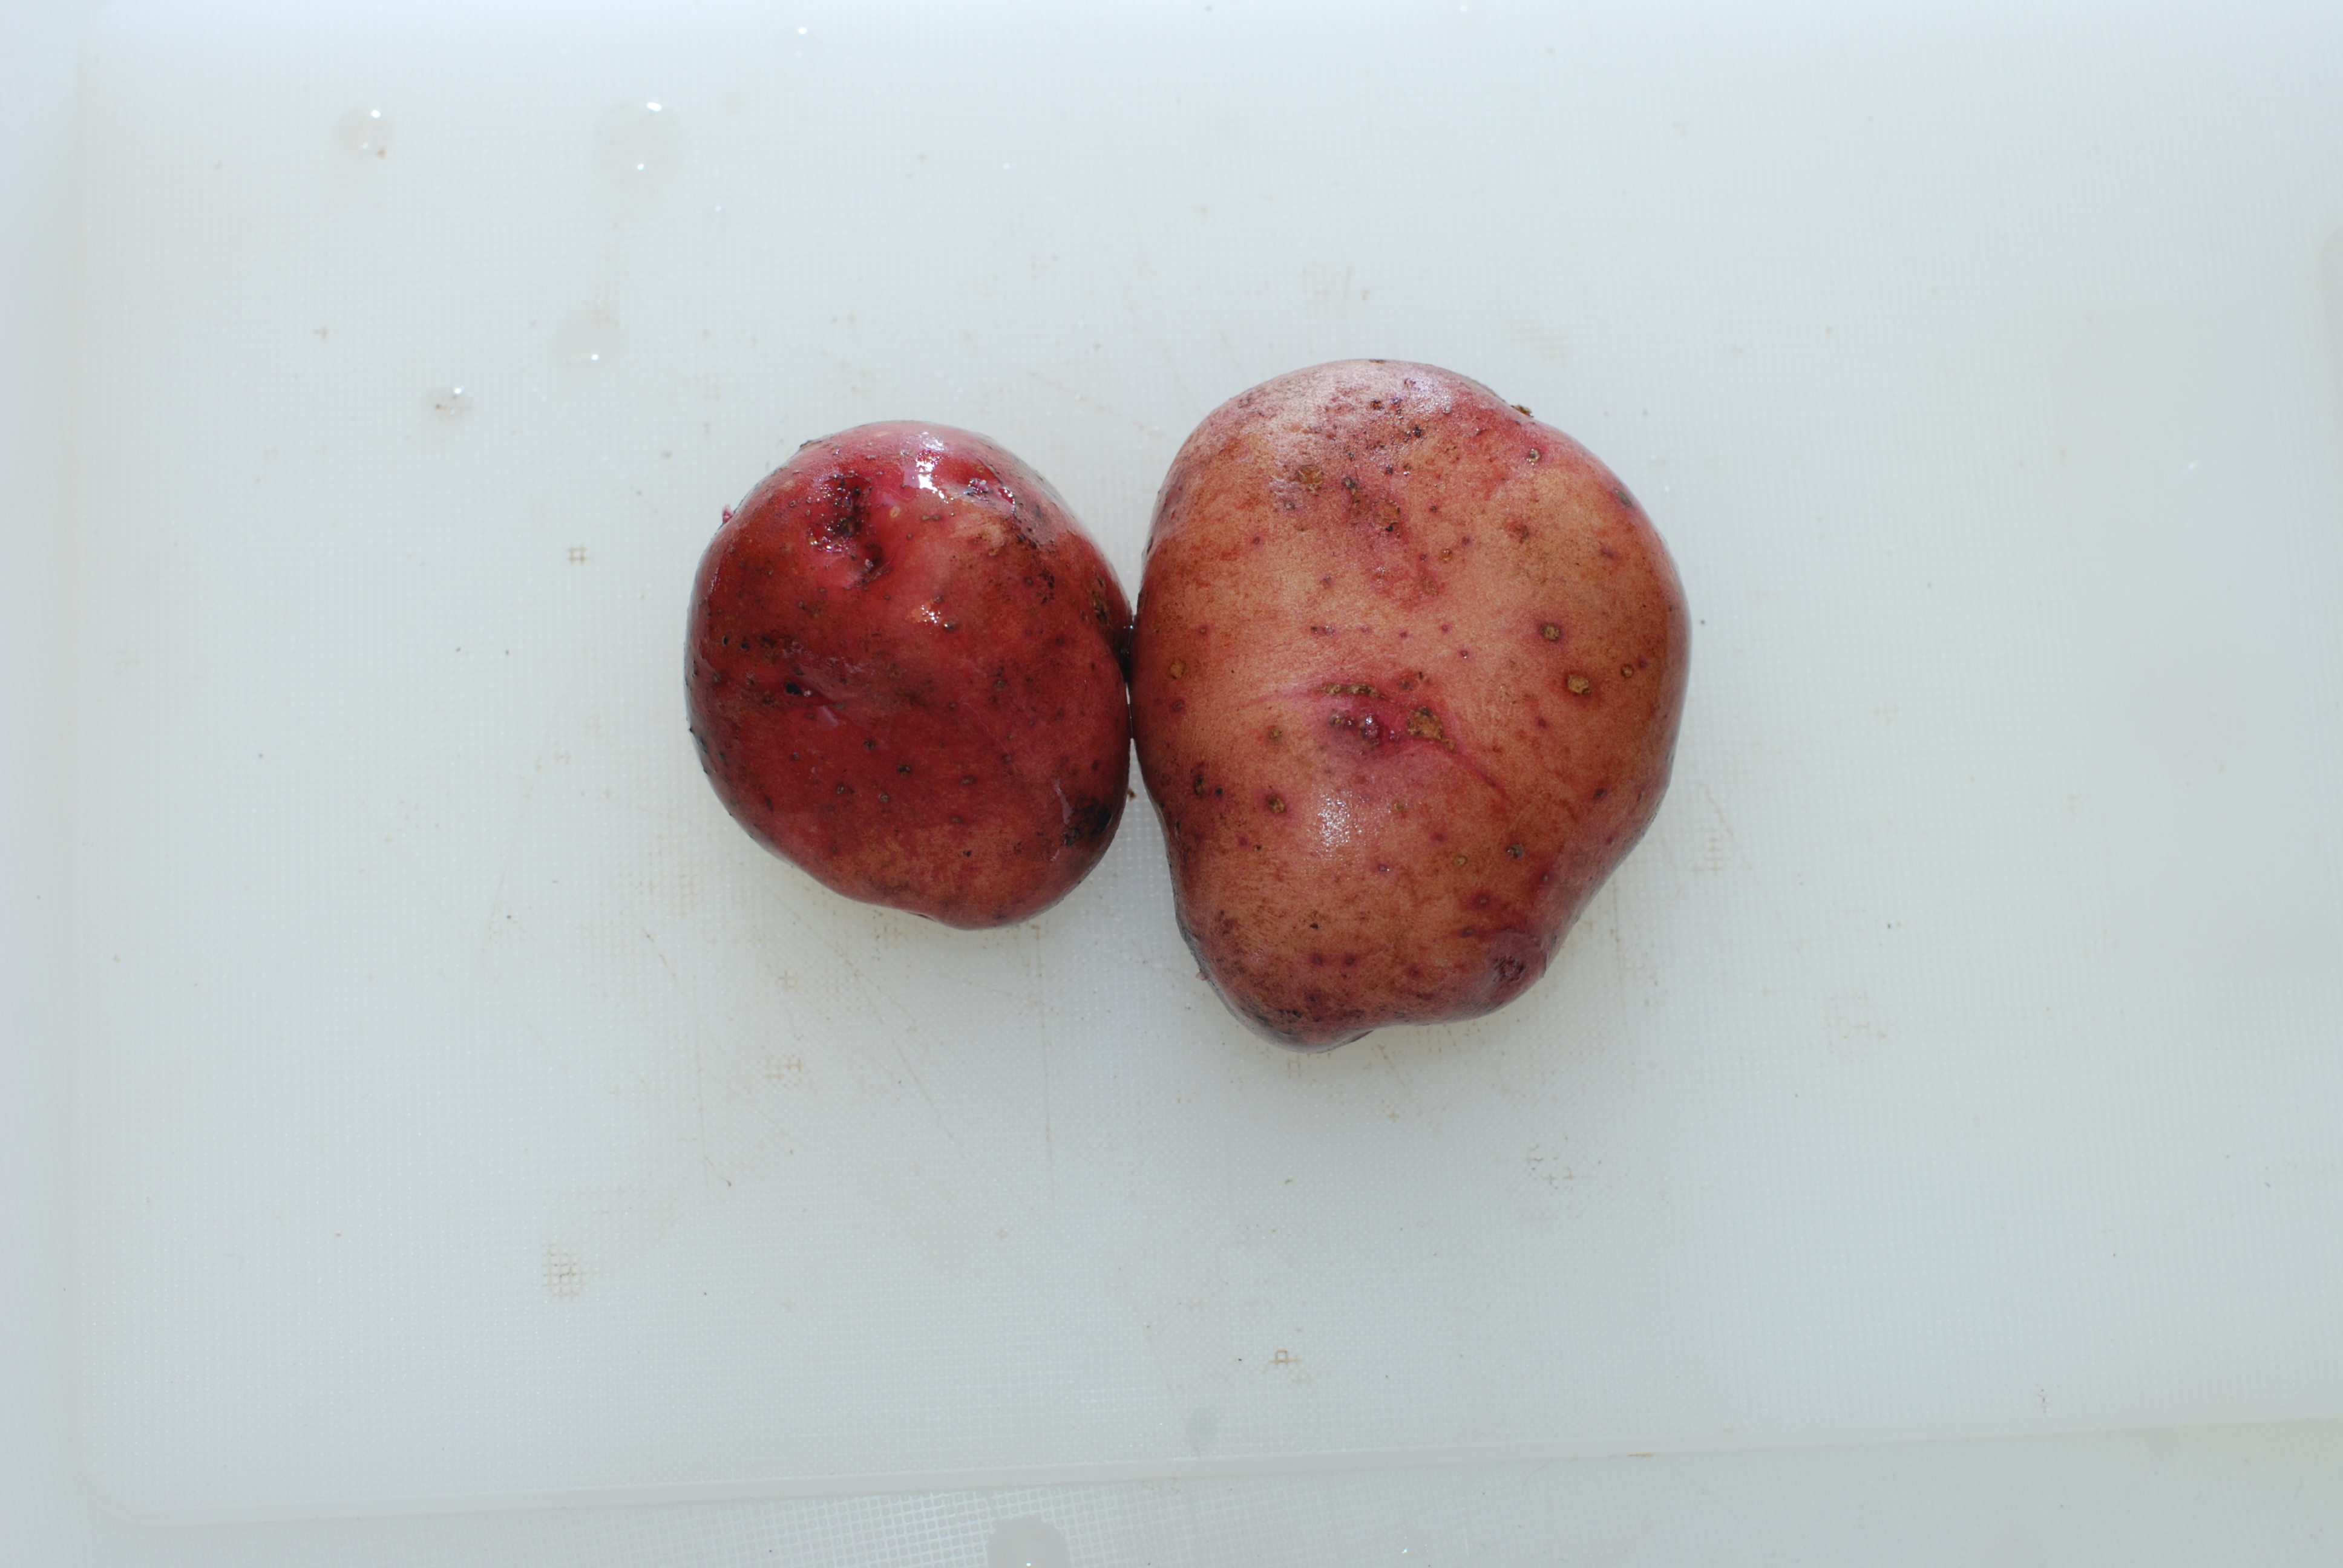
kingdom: Plantae
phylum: Tracheophyta
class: Magnoliopsida
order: Solanales
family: Solanaceae
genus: Solanum
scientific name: Solanum tuberosum
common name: Potato
